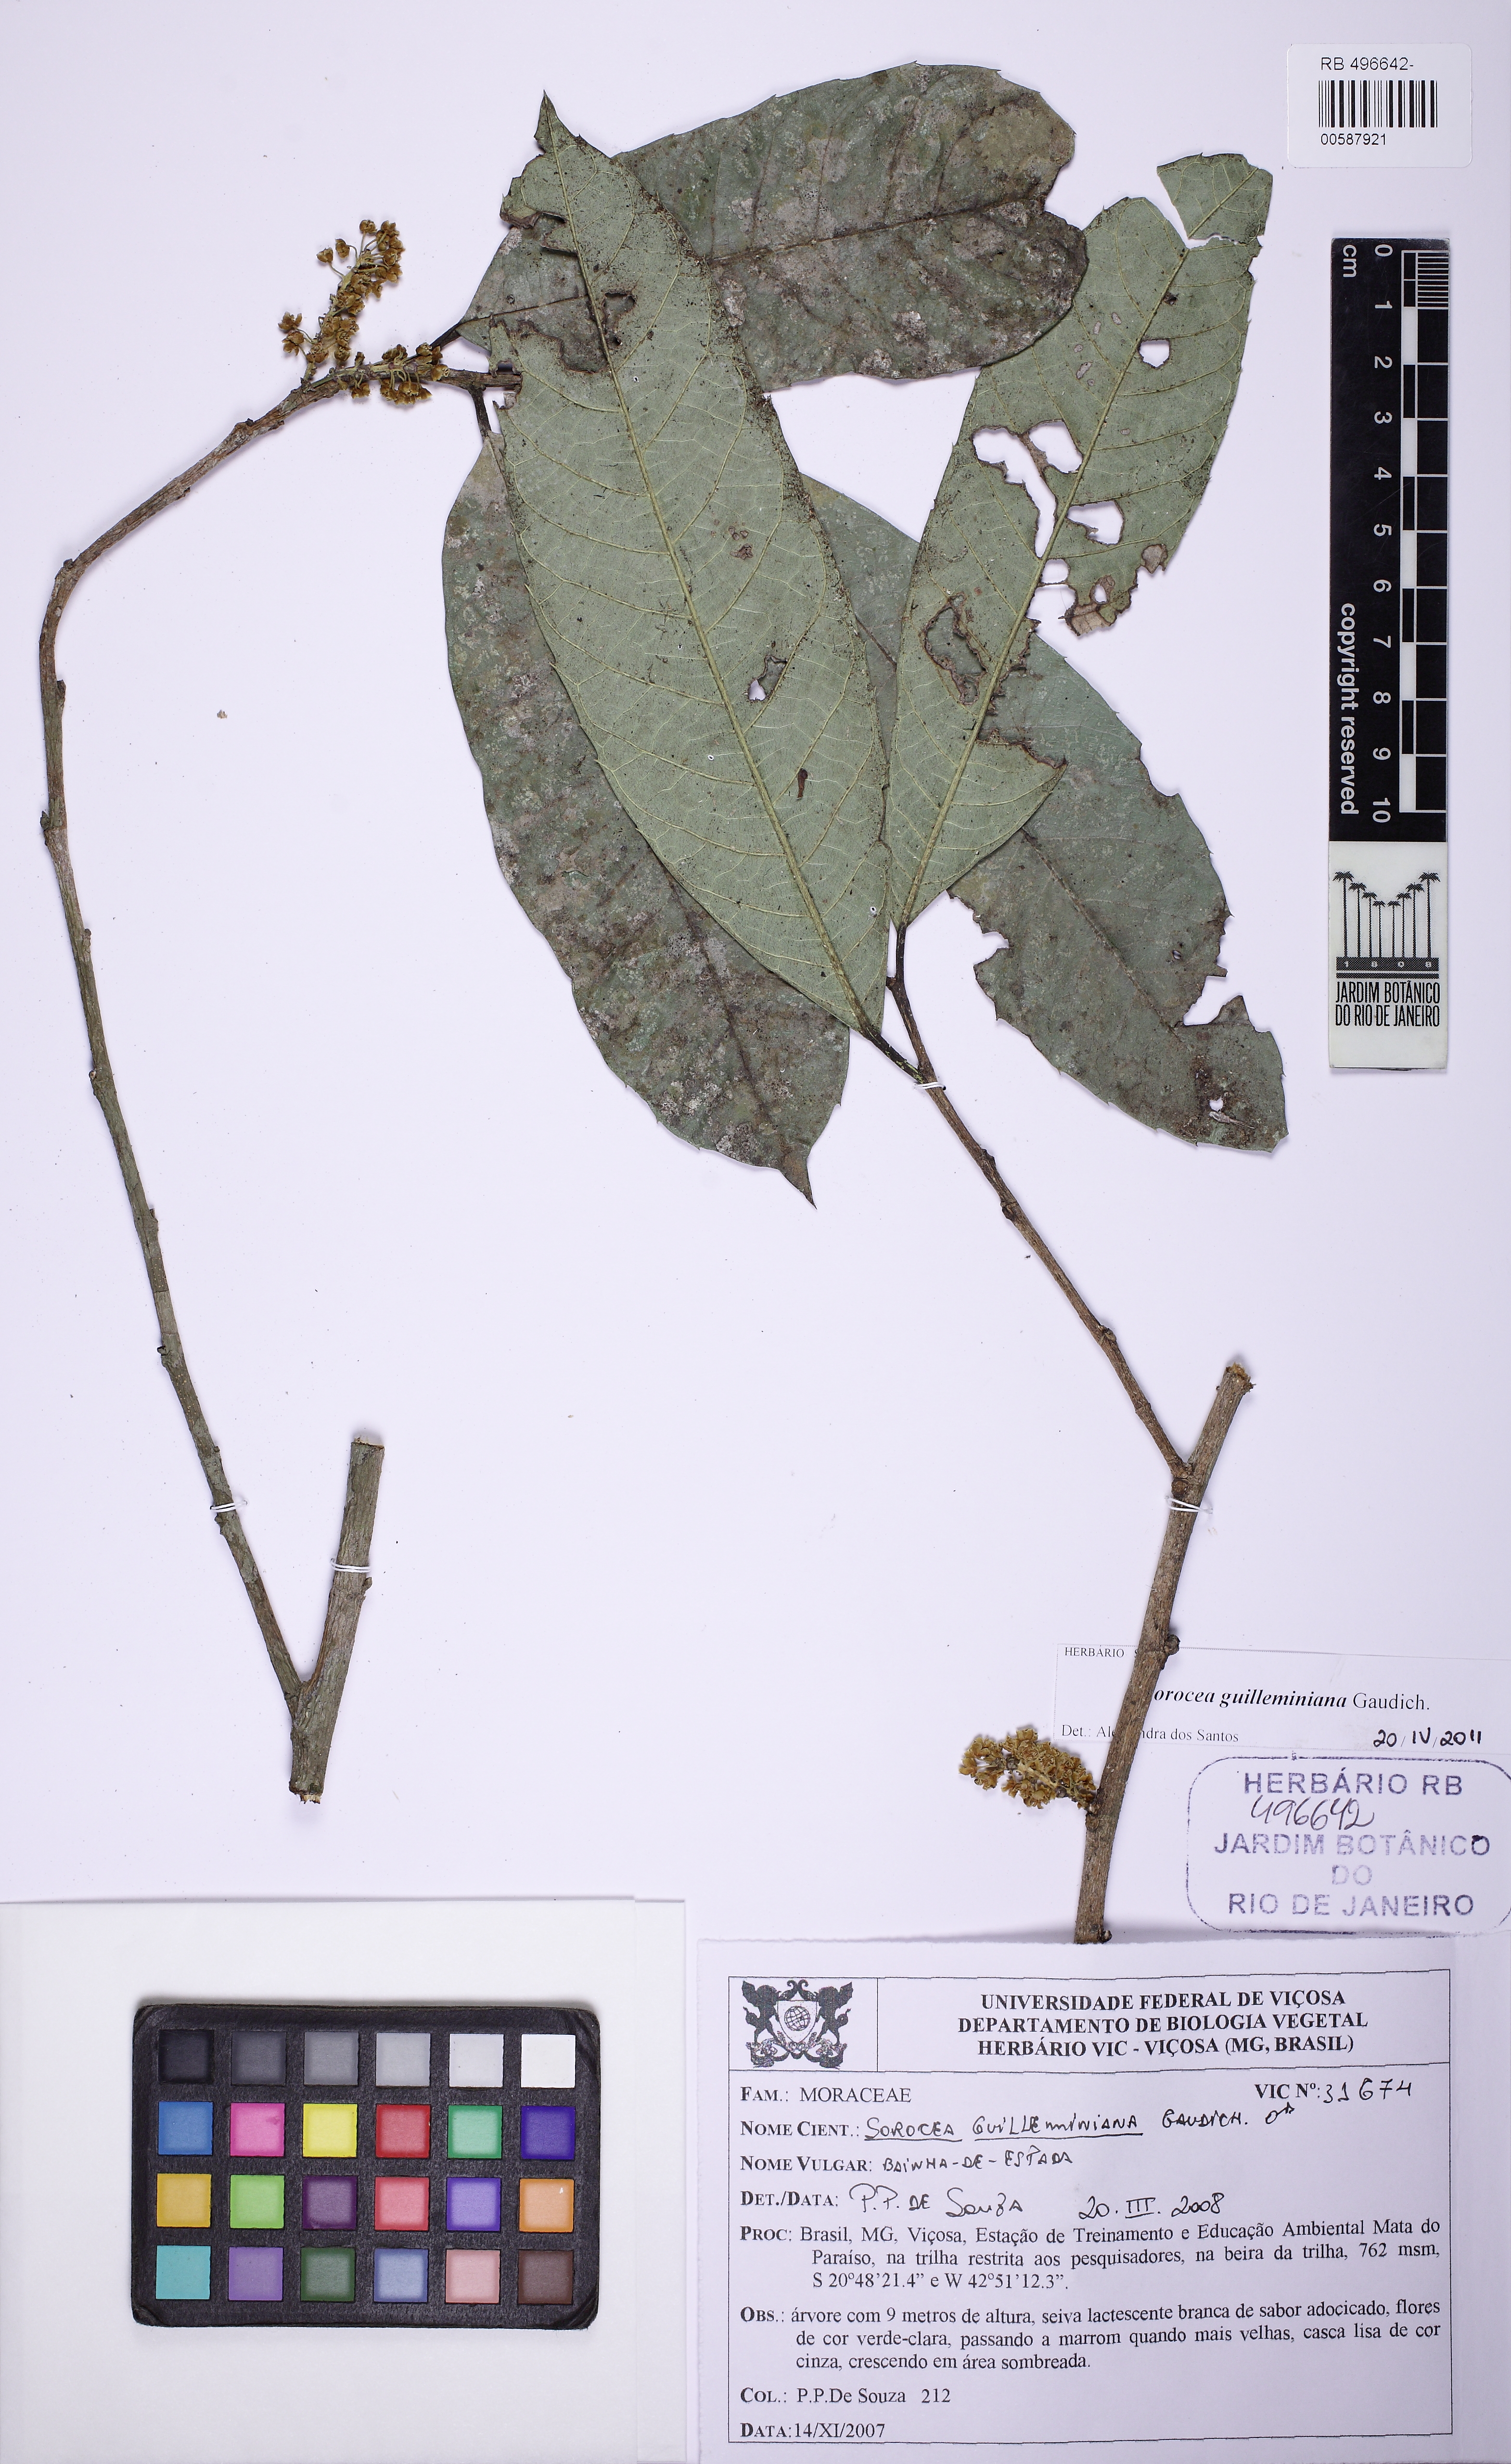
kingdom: Plantae
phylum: Tracheophyta
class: Magnoliopsida
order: Rosales
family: Moraceae
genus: Sorocea
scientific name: Sorocea guilleminiana
